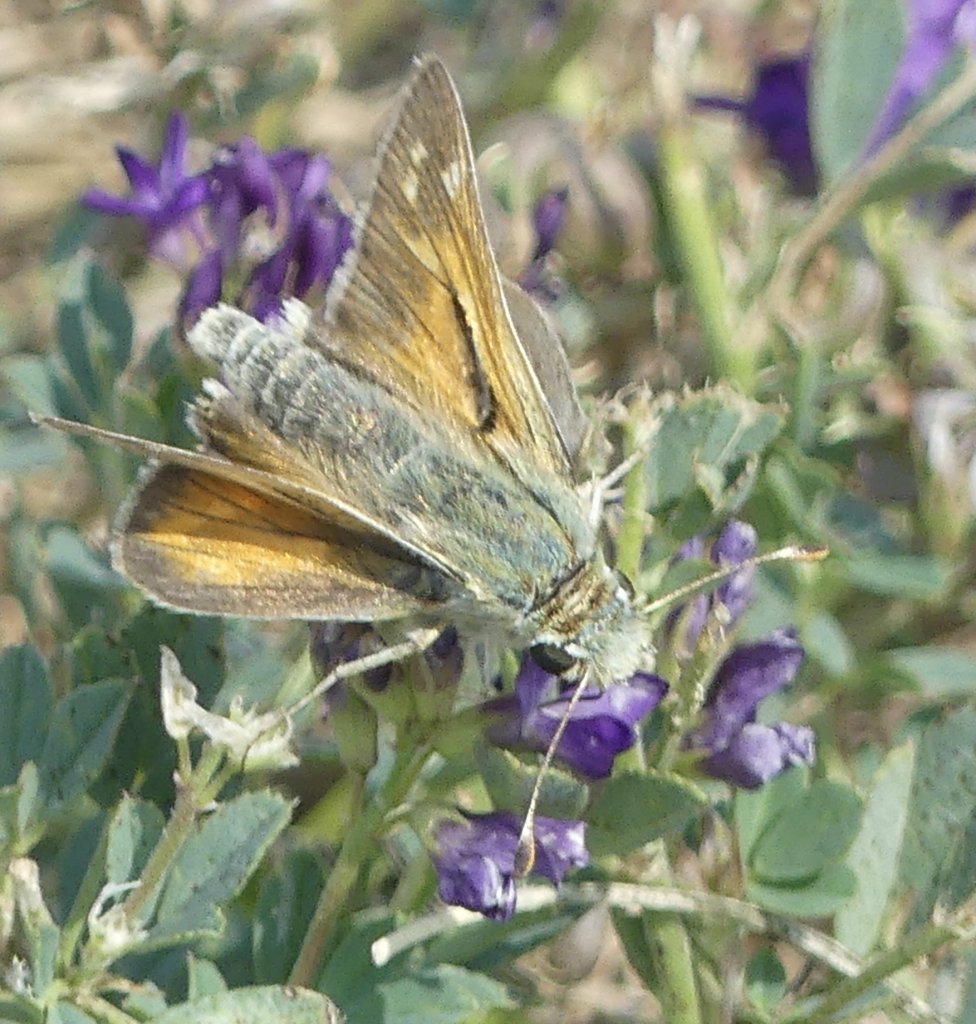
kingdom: Animalia
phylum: Arthropoda
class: Insecta
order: Lepidoptera
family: Hesperiidae
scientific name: Hesperiidae
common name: Skippers
